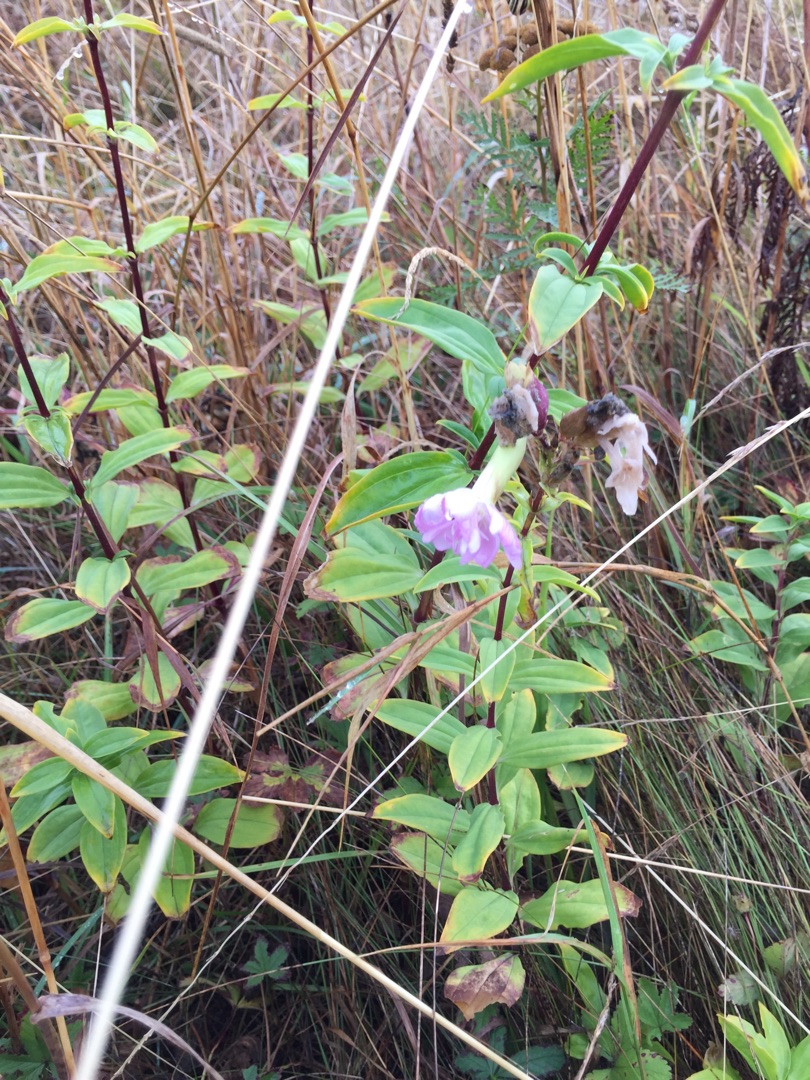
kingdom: Plantae
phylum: Tracheophyta
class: Magnoliopsida
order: Caryophyllales
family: Caryophyllaceae
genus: Saponaria
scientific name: Saponaria officinalis
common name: Sæbeurt
